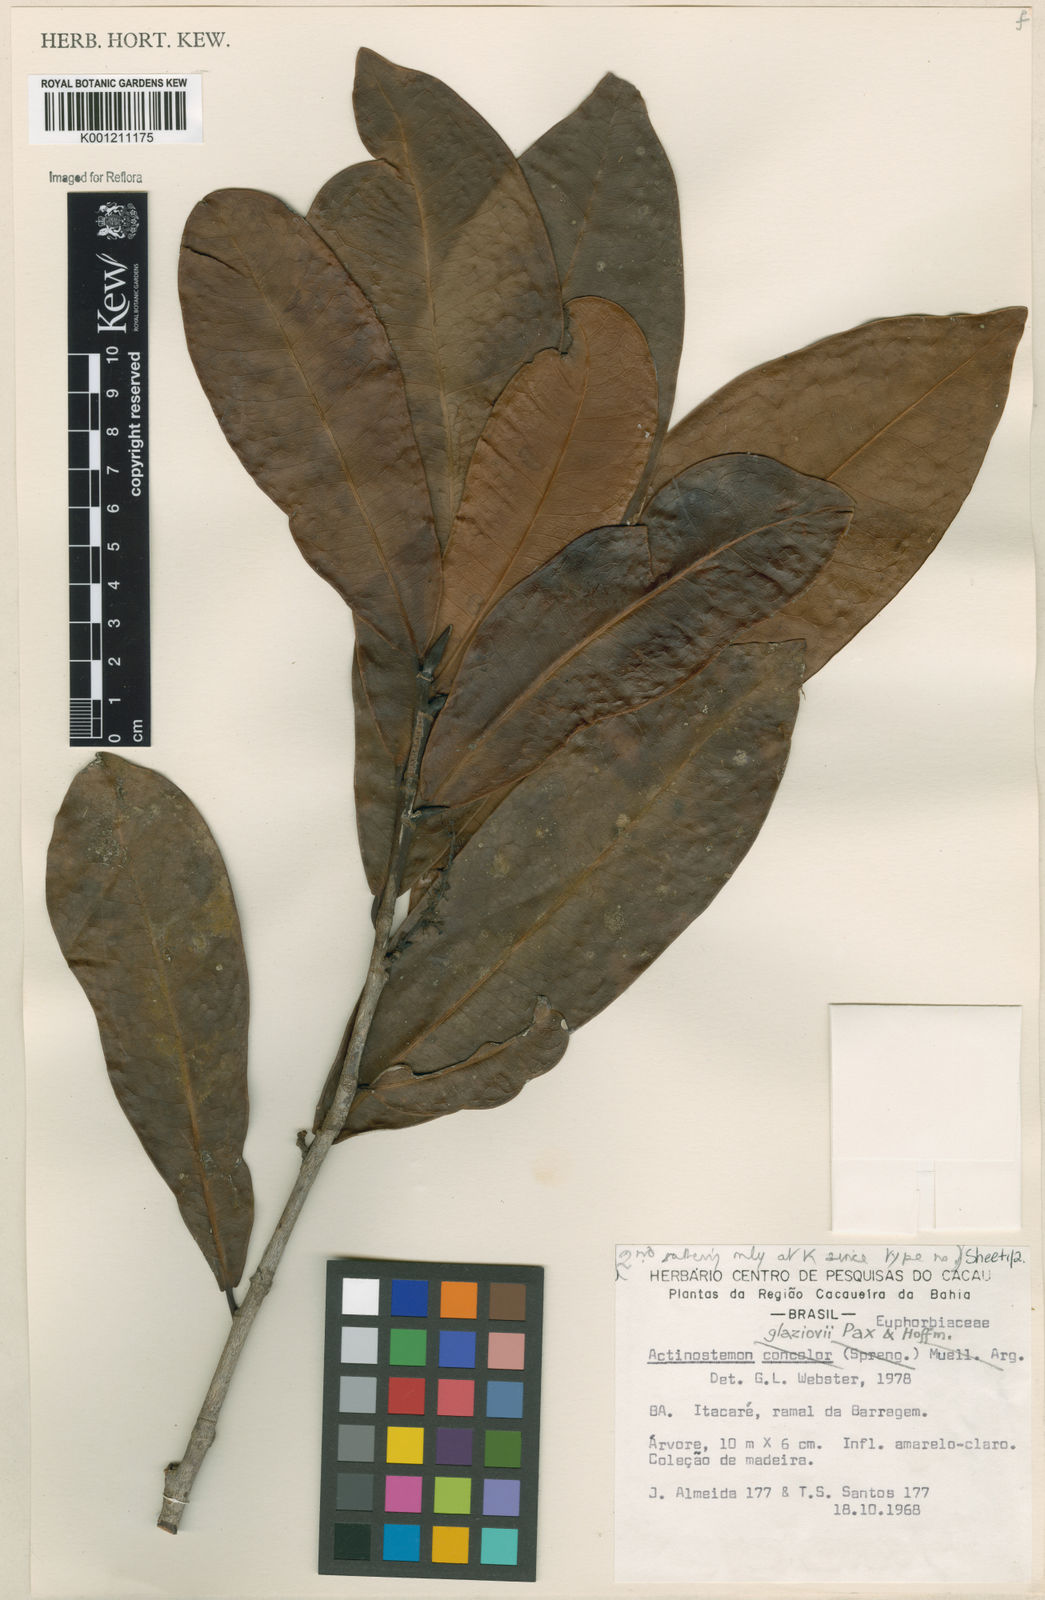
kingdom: Plantae
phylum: Tracheophyta
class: Magnoliopsida
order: Malpighiales
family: Euphorbiaceae
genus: Actinostemon
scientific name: Actinostemon glaziovii
